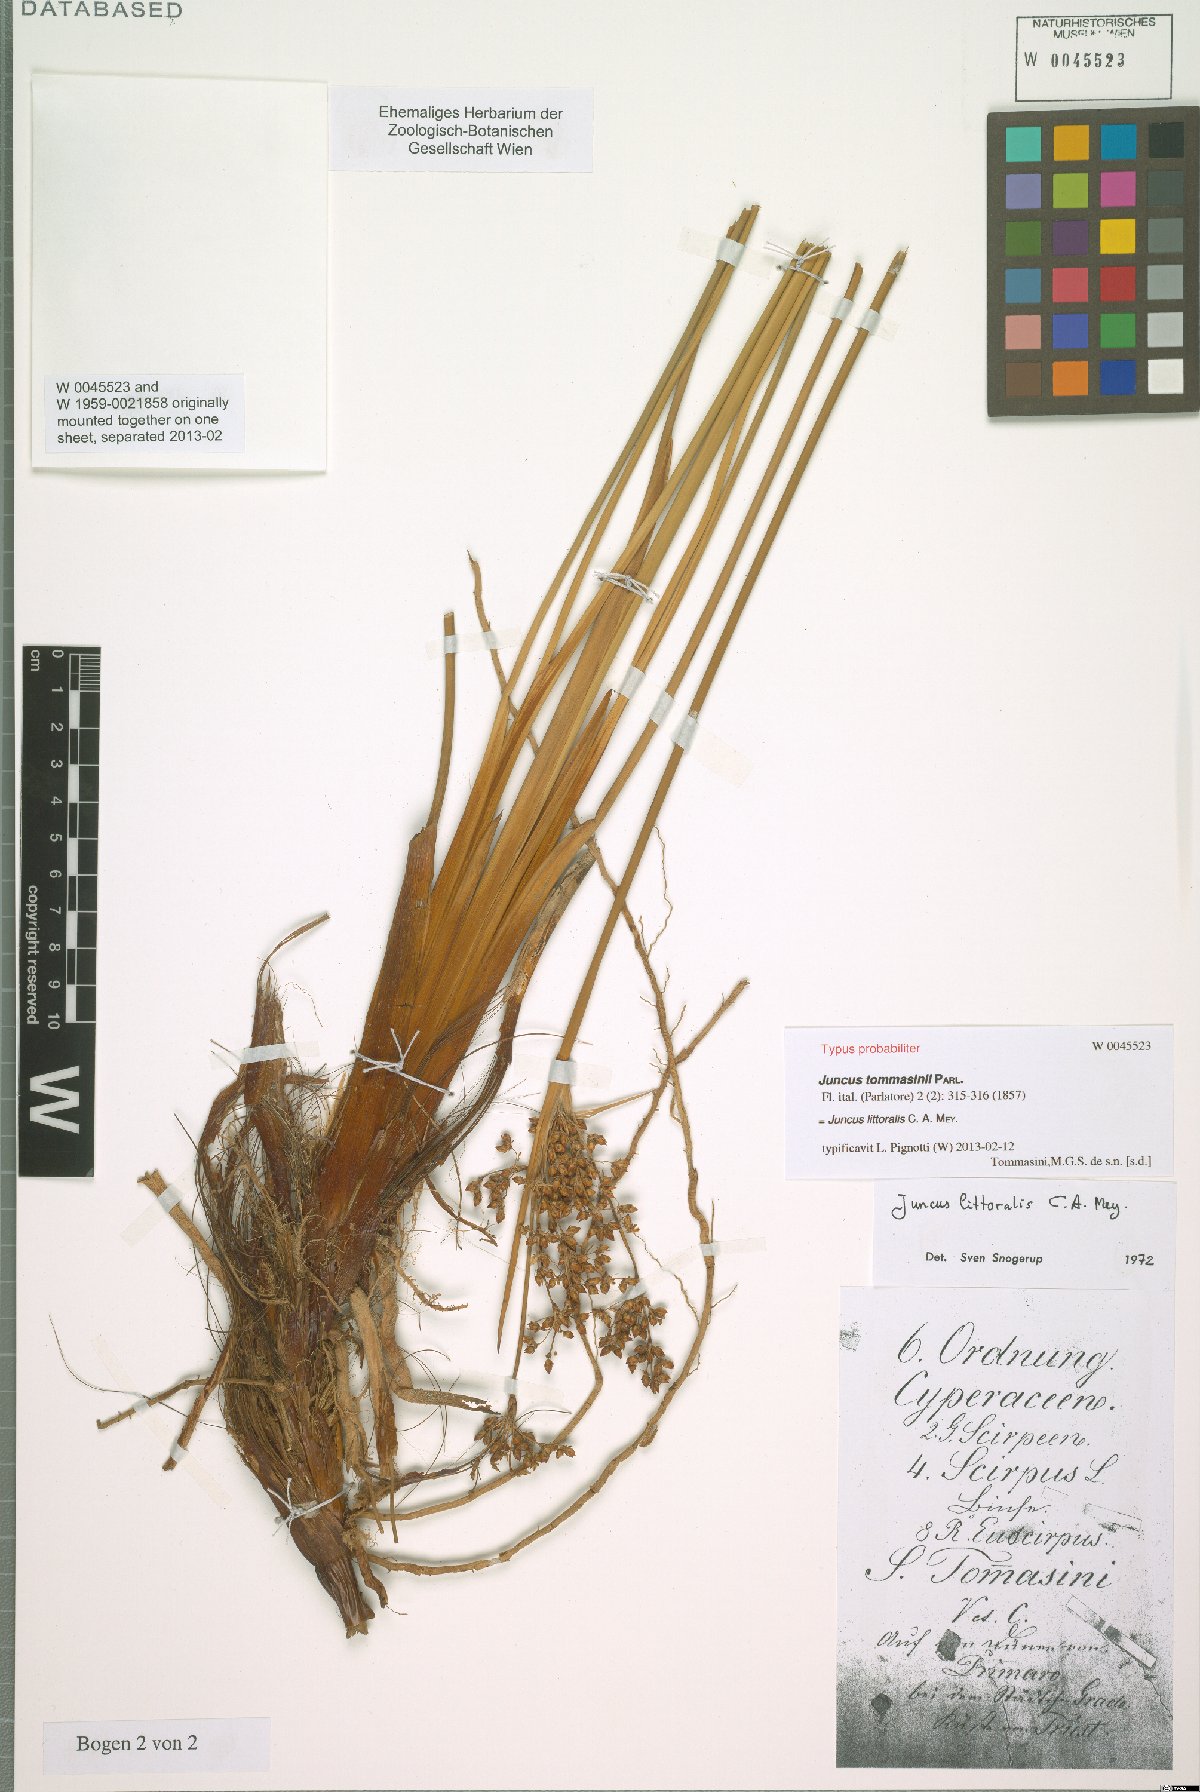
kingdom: Plantae
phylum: Tracheophyta
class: Liliopsida
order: Poales
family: Juncaceae
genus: Juncus
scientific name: Juncus littoralis
